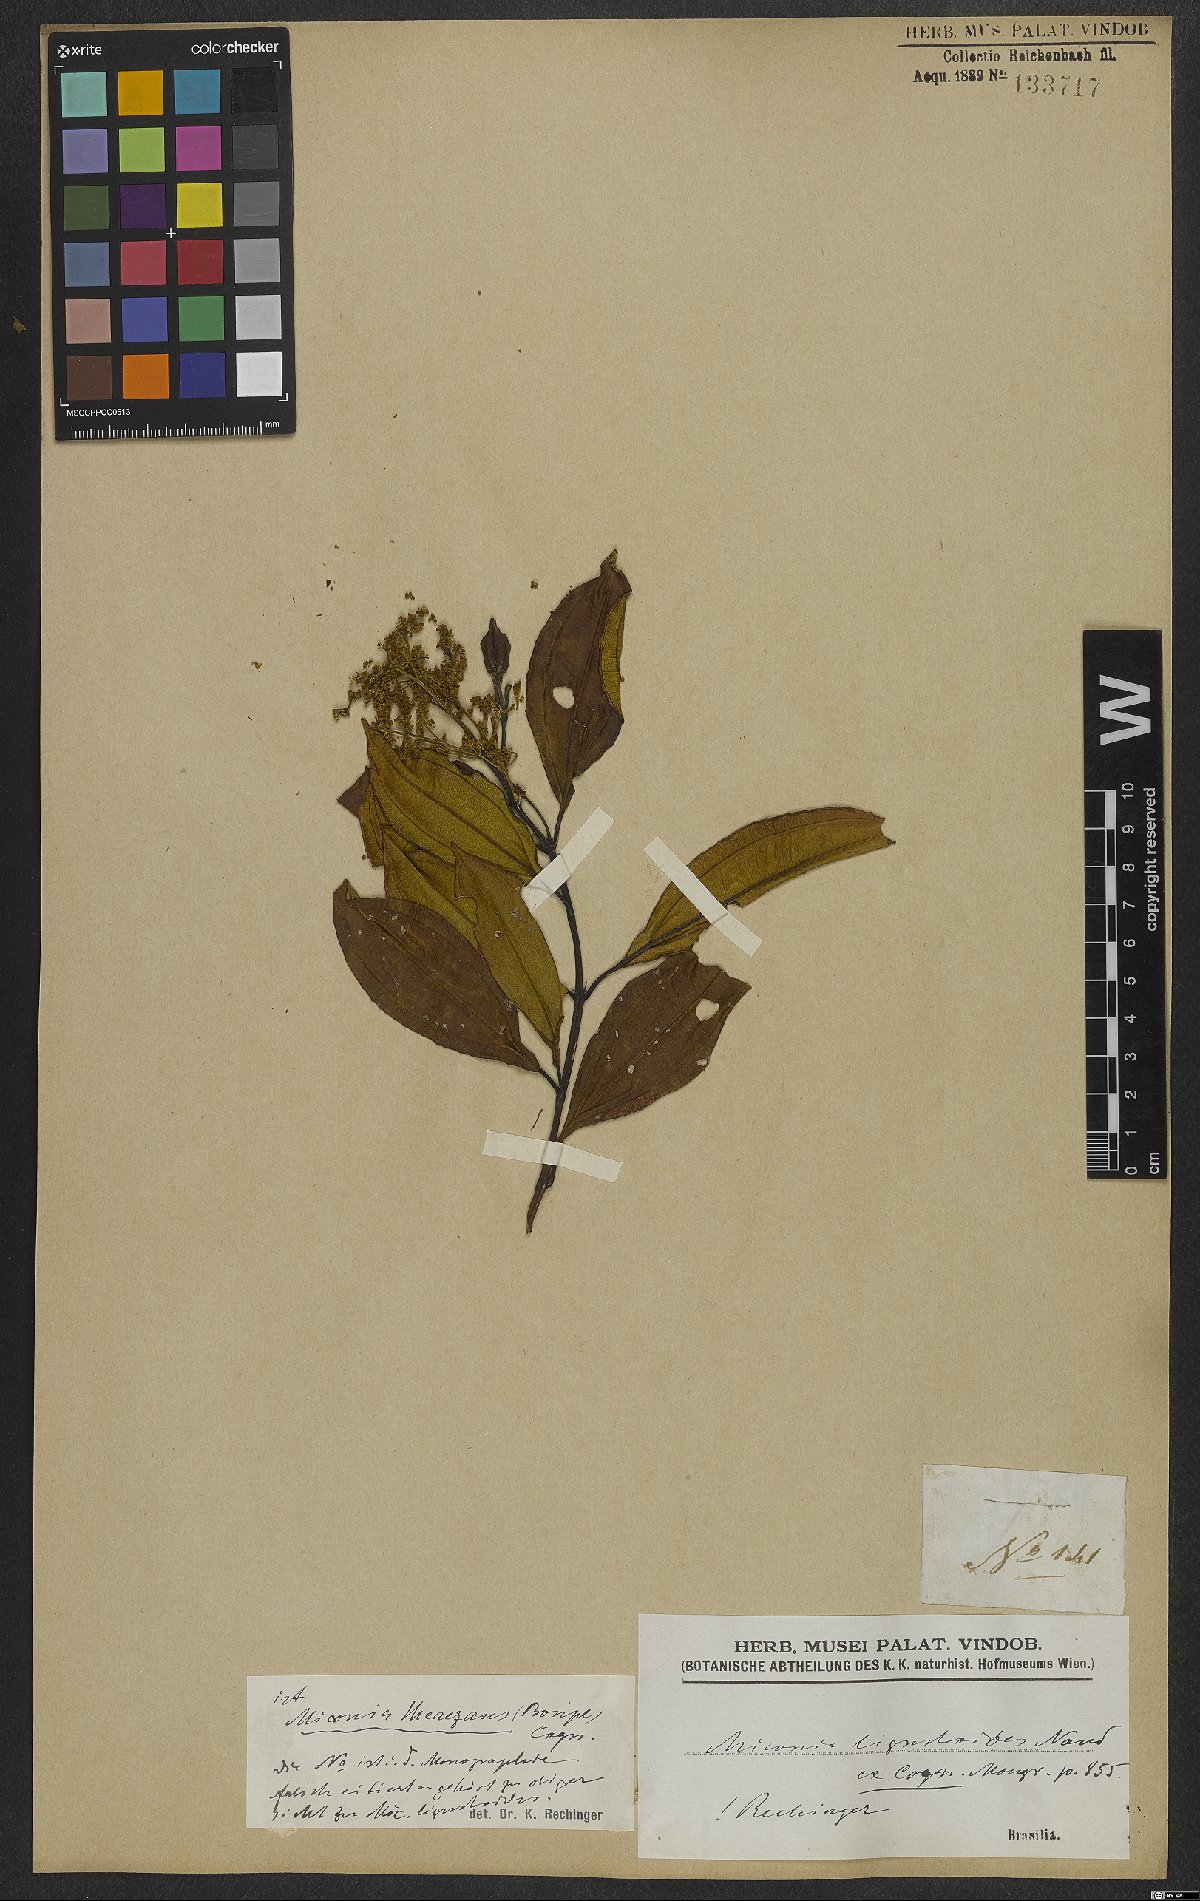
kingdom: Plantae
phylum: Tracheophyta
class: Magnoliopsida
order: Myrtales
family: Melastomataceae
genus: Miconia
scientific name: Miconia theizans
